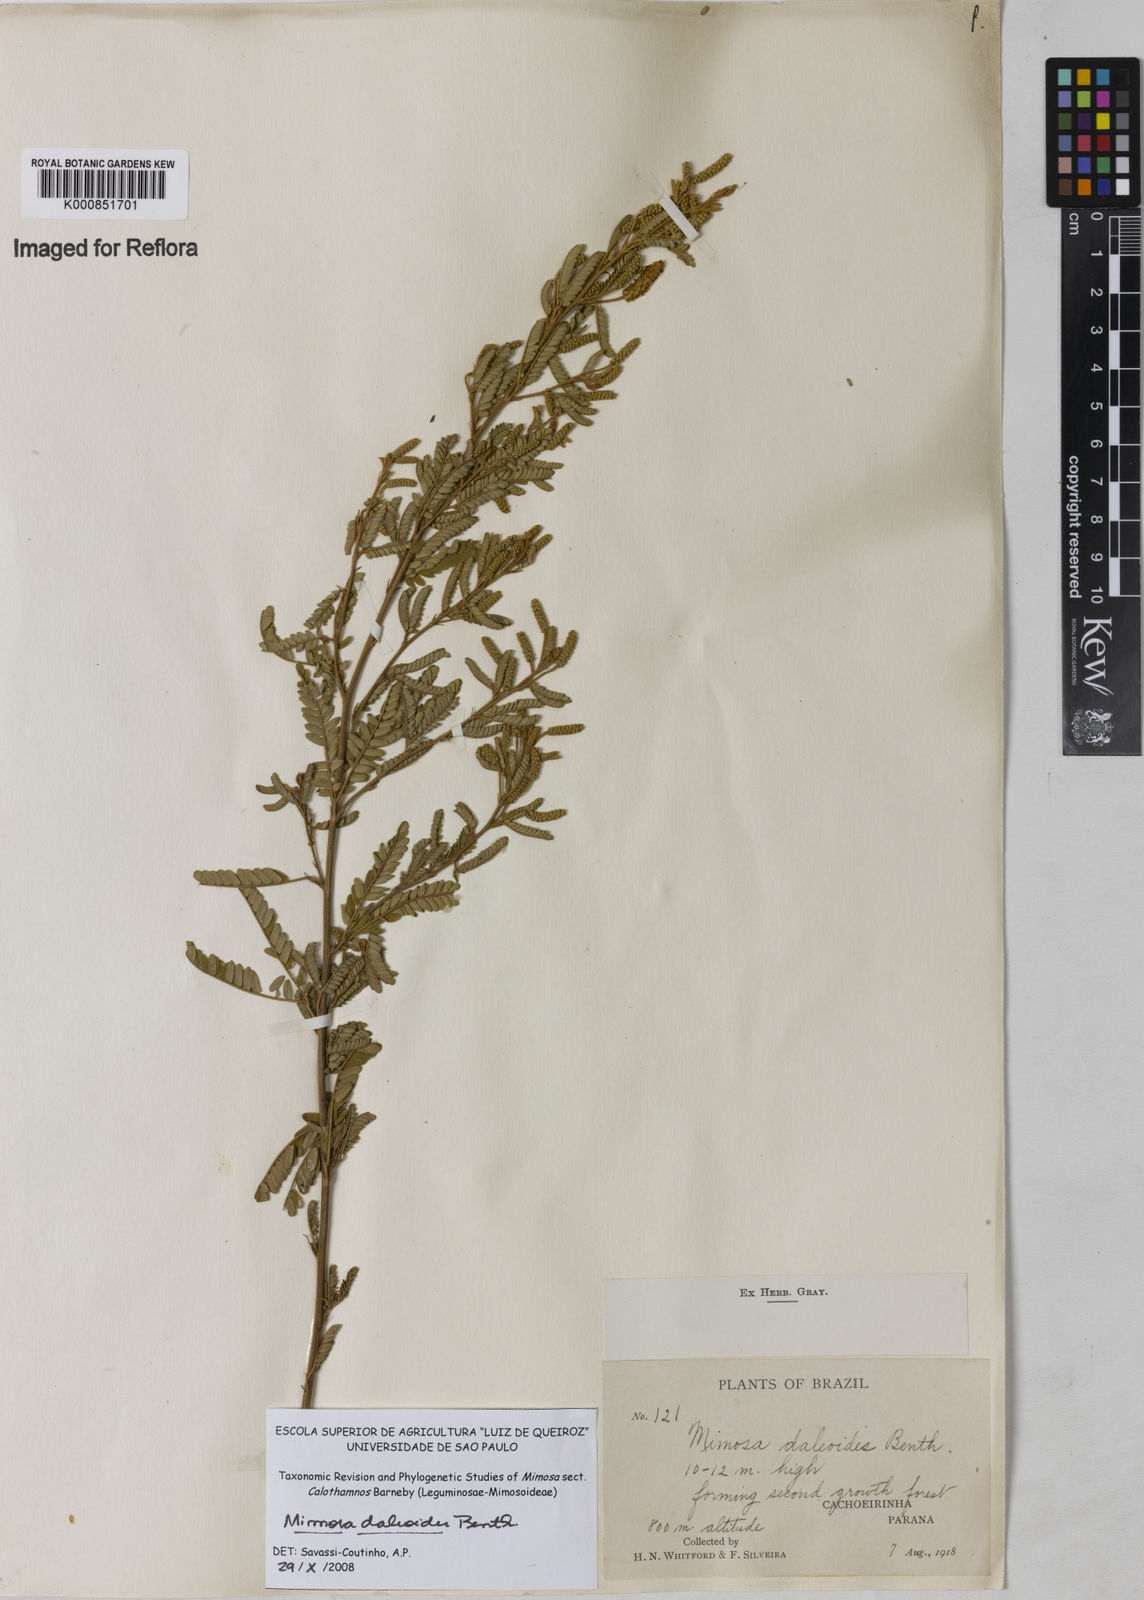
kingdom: Plantae
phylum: Tracheophyta
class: Magnoliopsida
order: Fabales
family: Fabaceae
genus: Mimosa
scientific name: Mimosa daleoides
